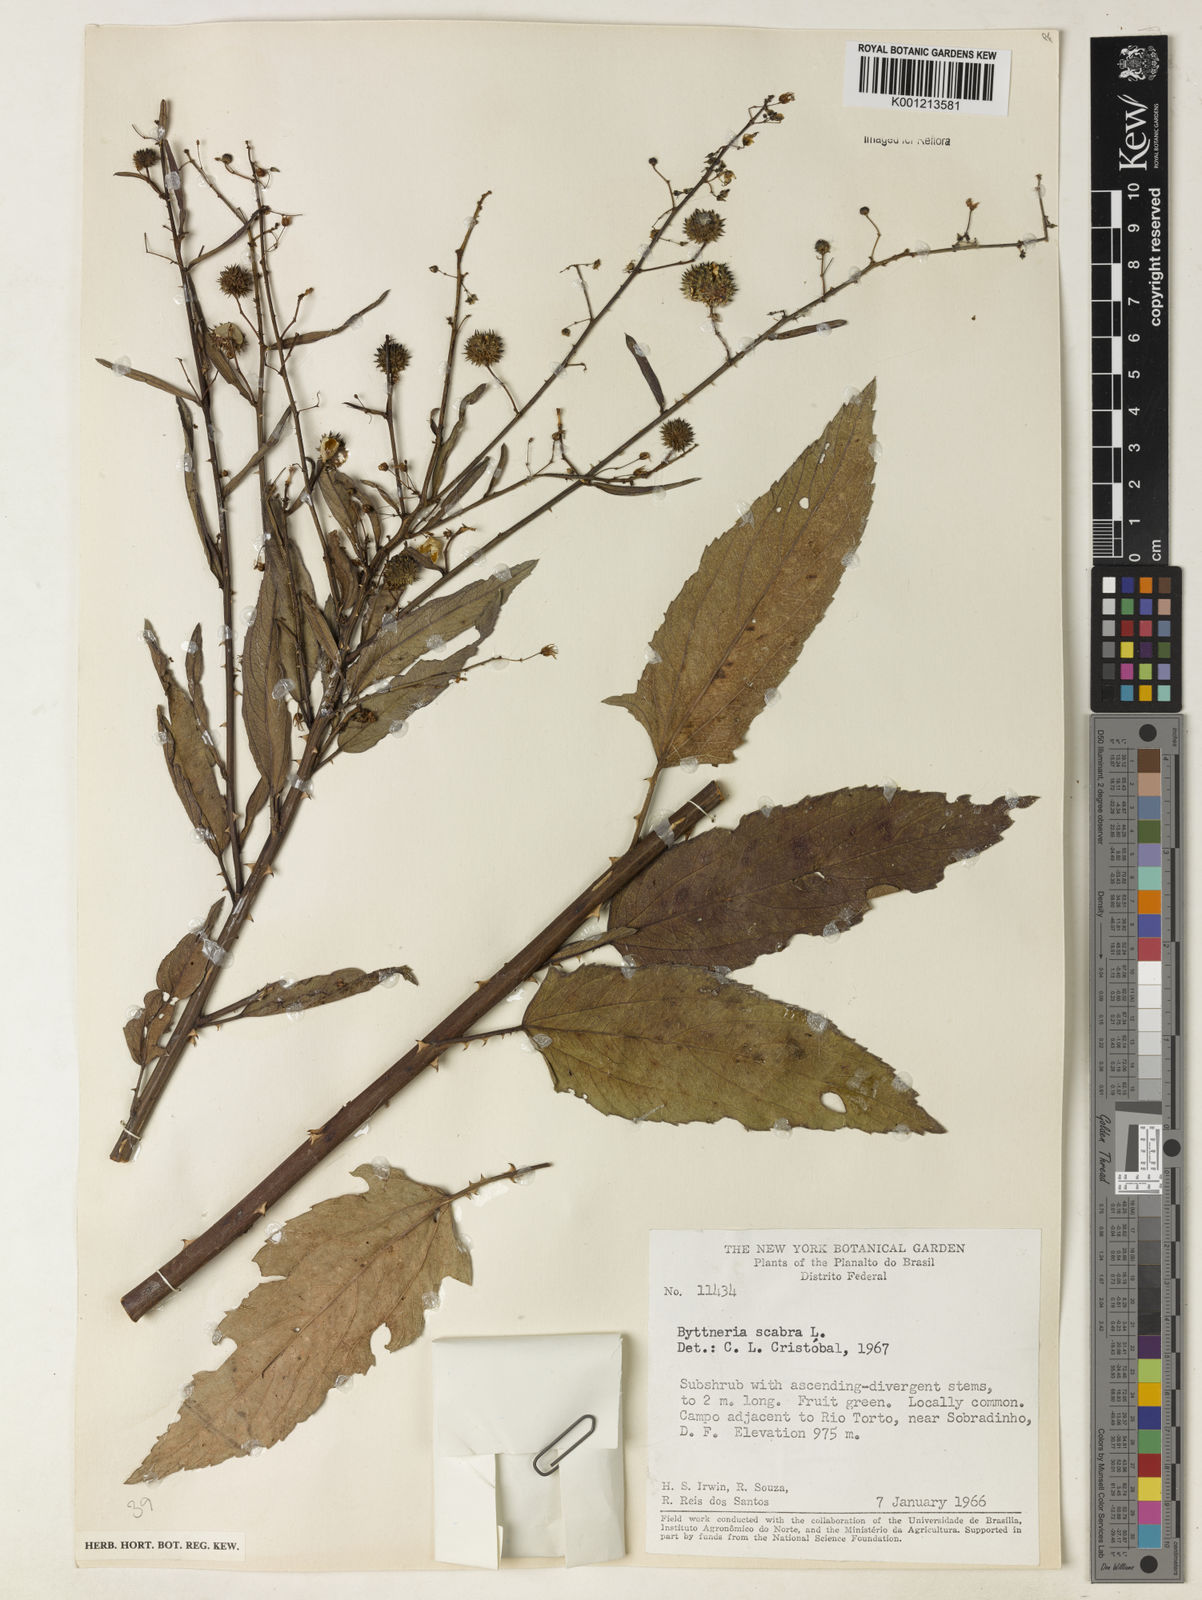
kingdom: Plantae
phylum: Tracheophyta
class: Magnoliopsida
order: Malvales
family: Malvaceae
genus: Byttneria
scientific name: Byttneria
